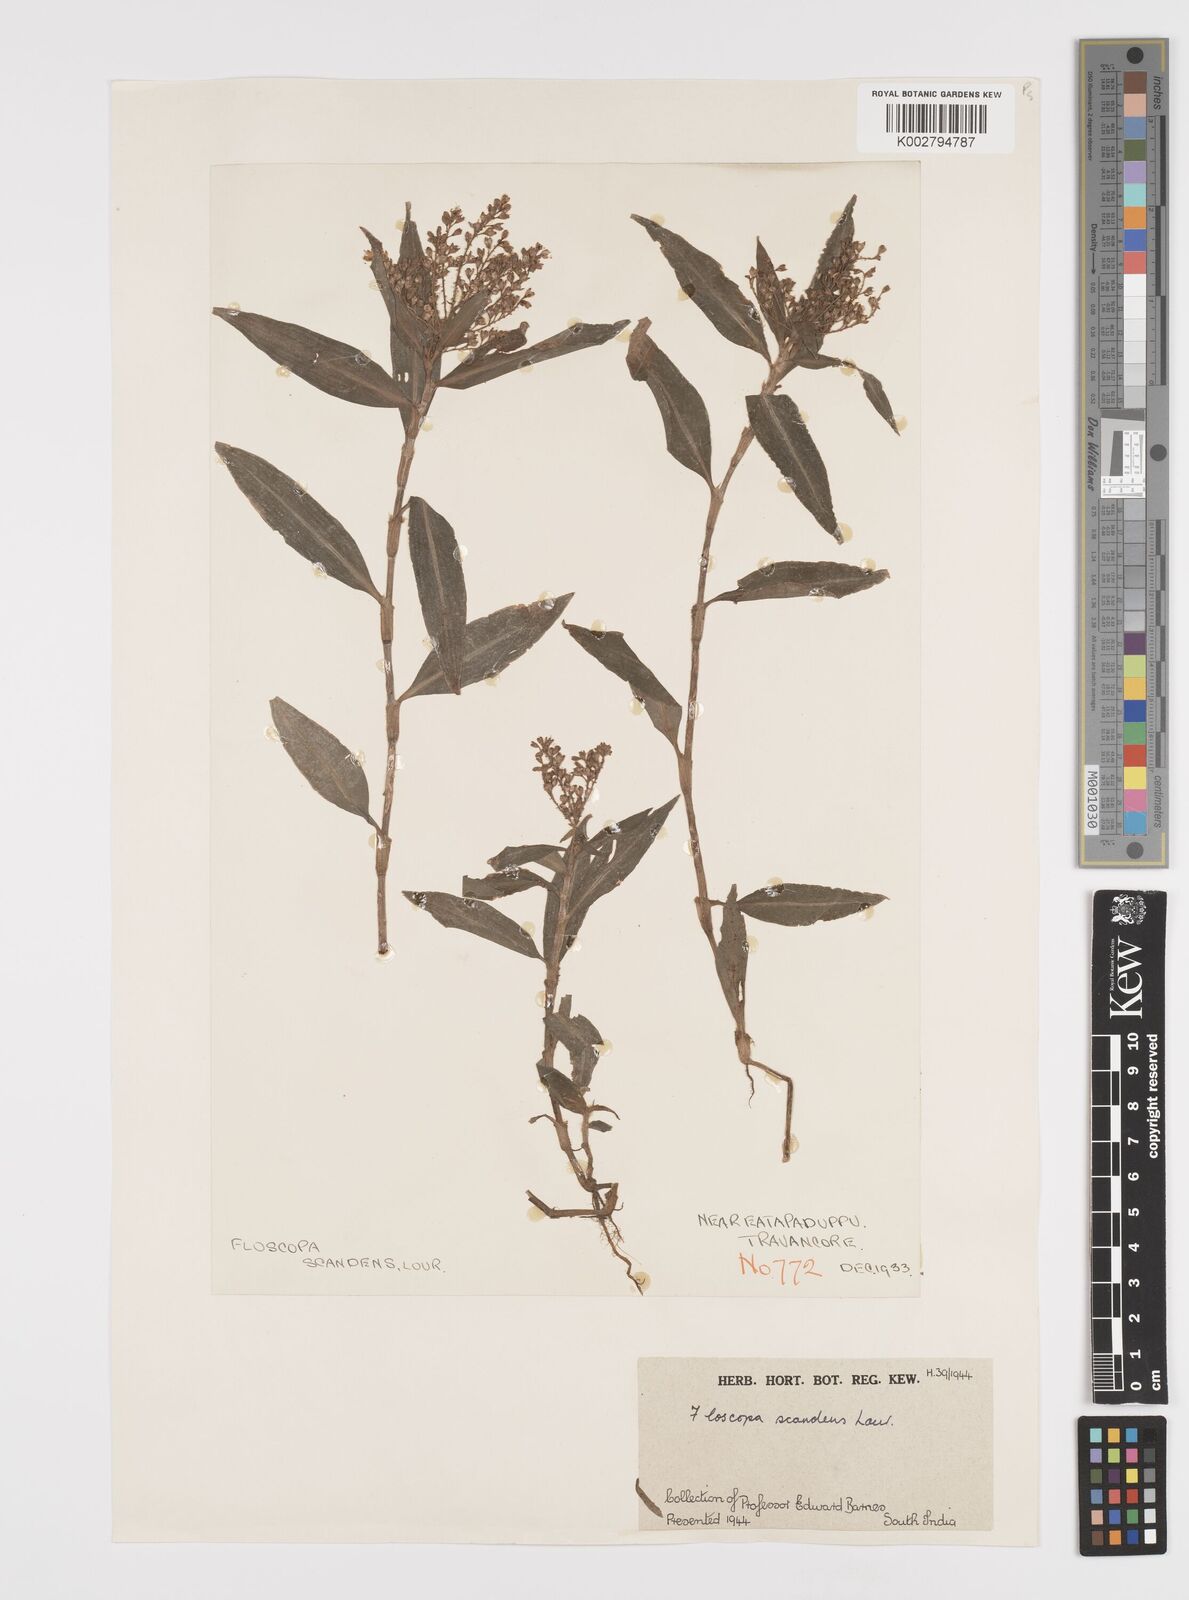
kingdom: Plantae
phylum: Tracheophyta
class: Liliopsida
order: Commelinales
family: Commelinaceae
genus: Floscopa
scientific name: Floscopa scandens
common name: Climbing flower cup
